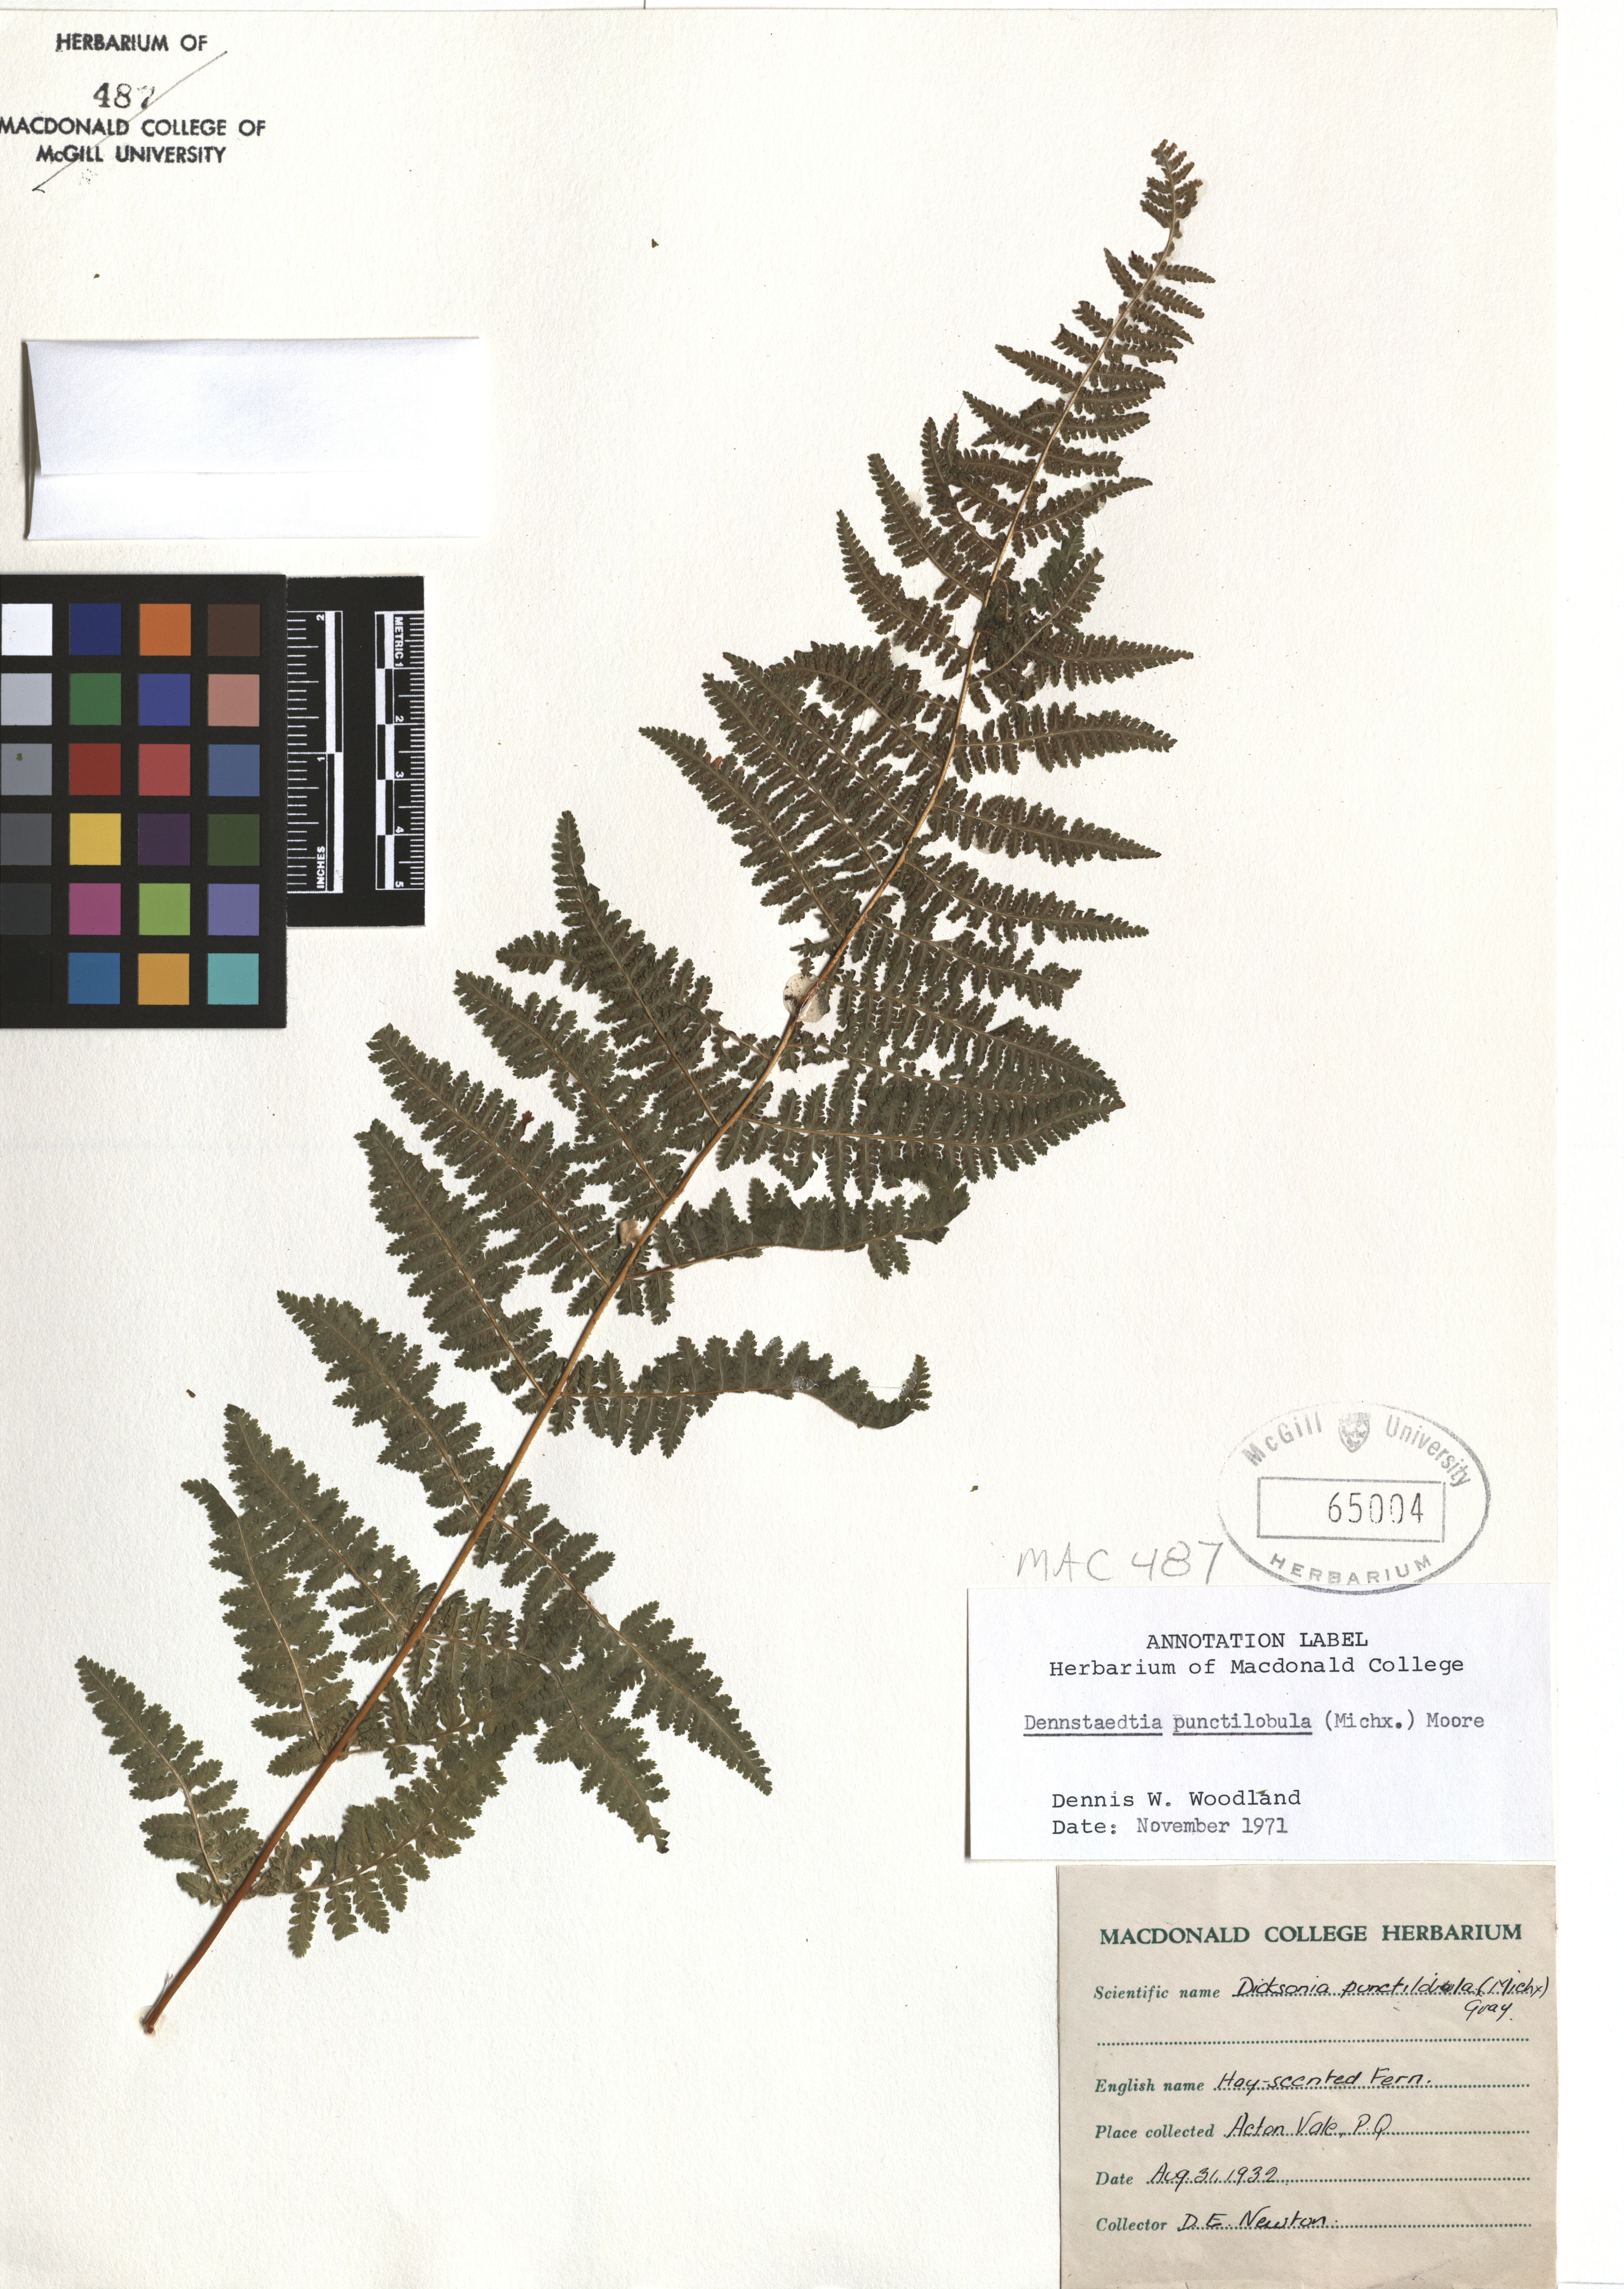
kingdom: Plantae
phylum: Tracheophyta
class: Polypodiopsida
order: Polypodiales
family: Dennstaedtiaceae
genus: Sitobolium
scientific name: Sitobolium punctilobum
